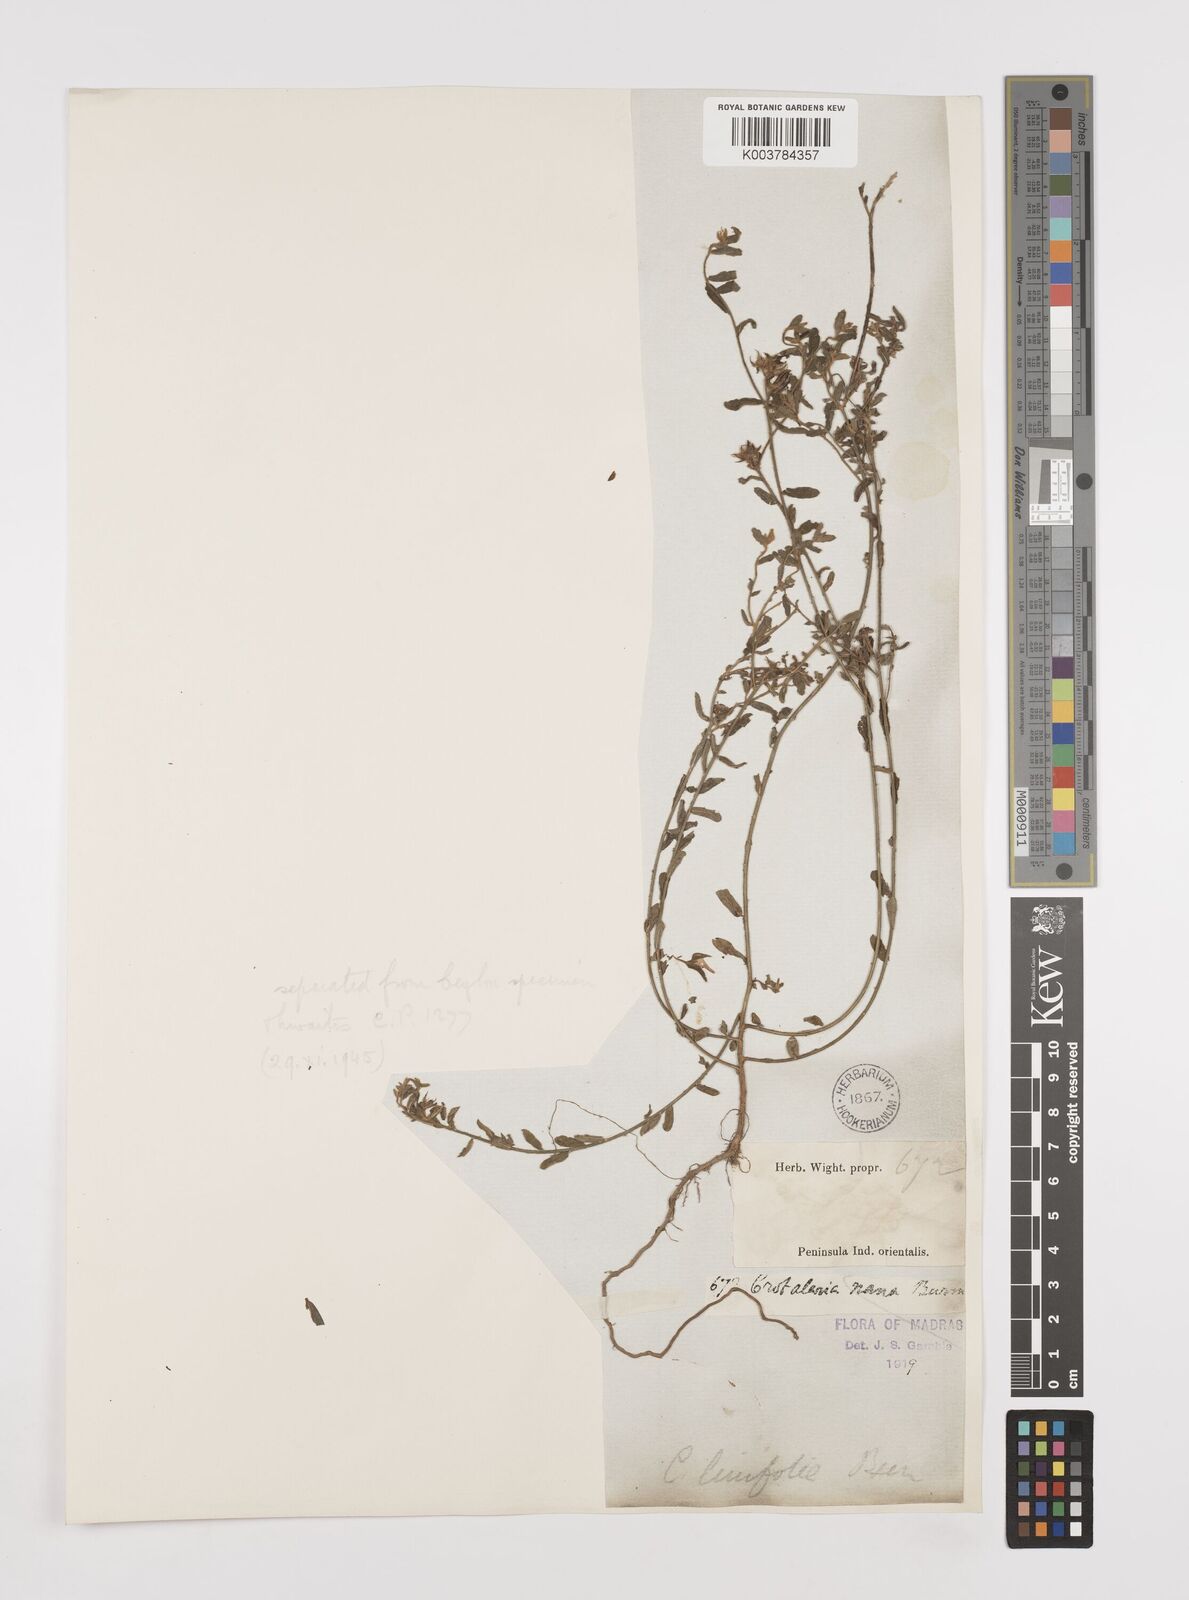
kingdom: Plantae
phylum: Tracheophyta
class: Magnoliopsida
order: Fabales
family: Fabaceae
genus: Crotalaria
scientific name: Crotalaria linifolia
